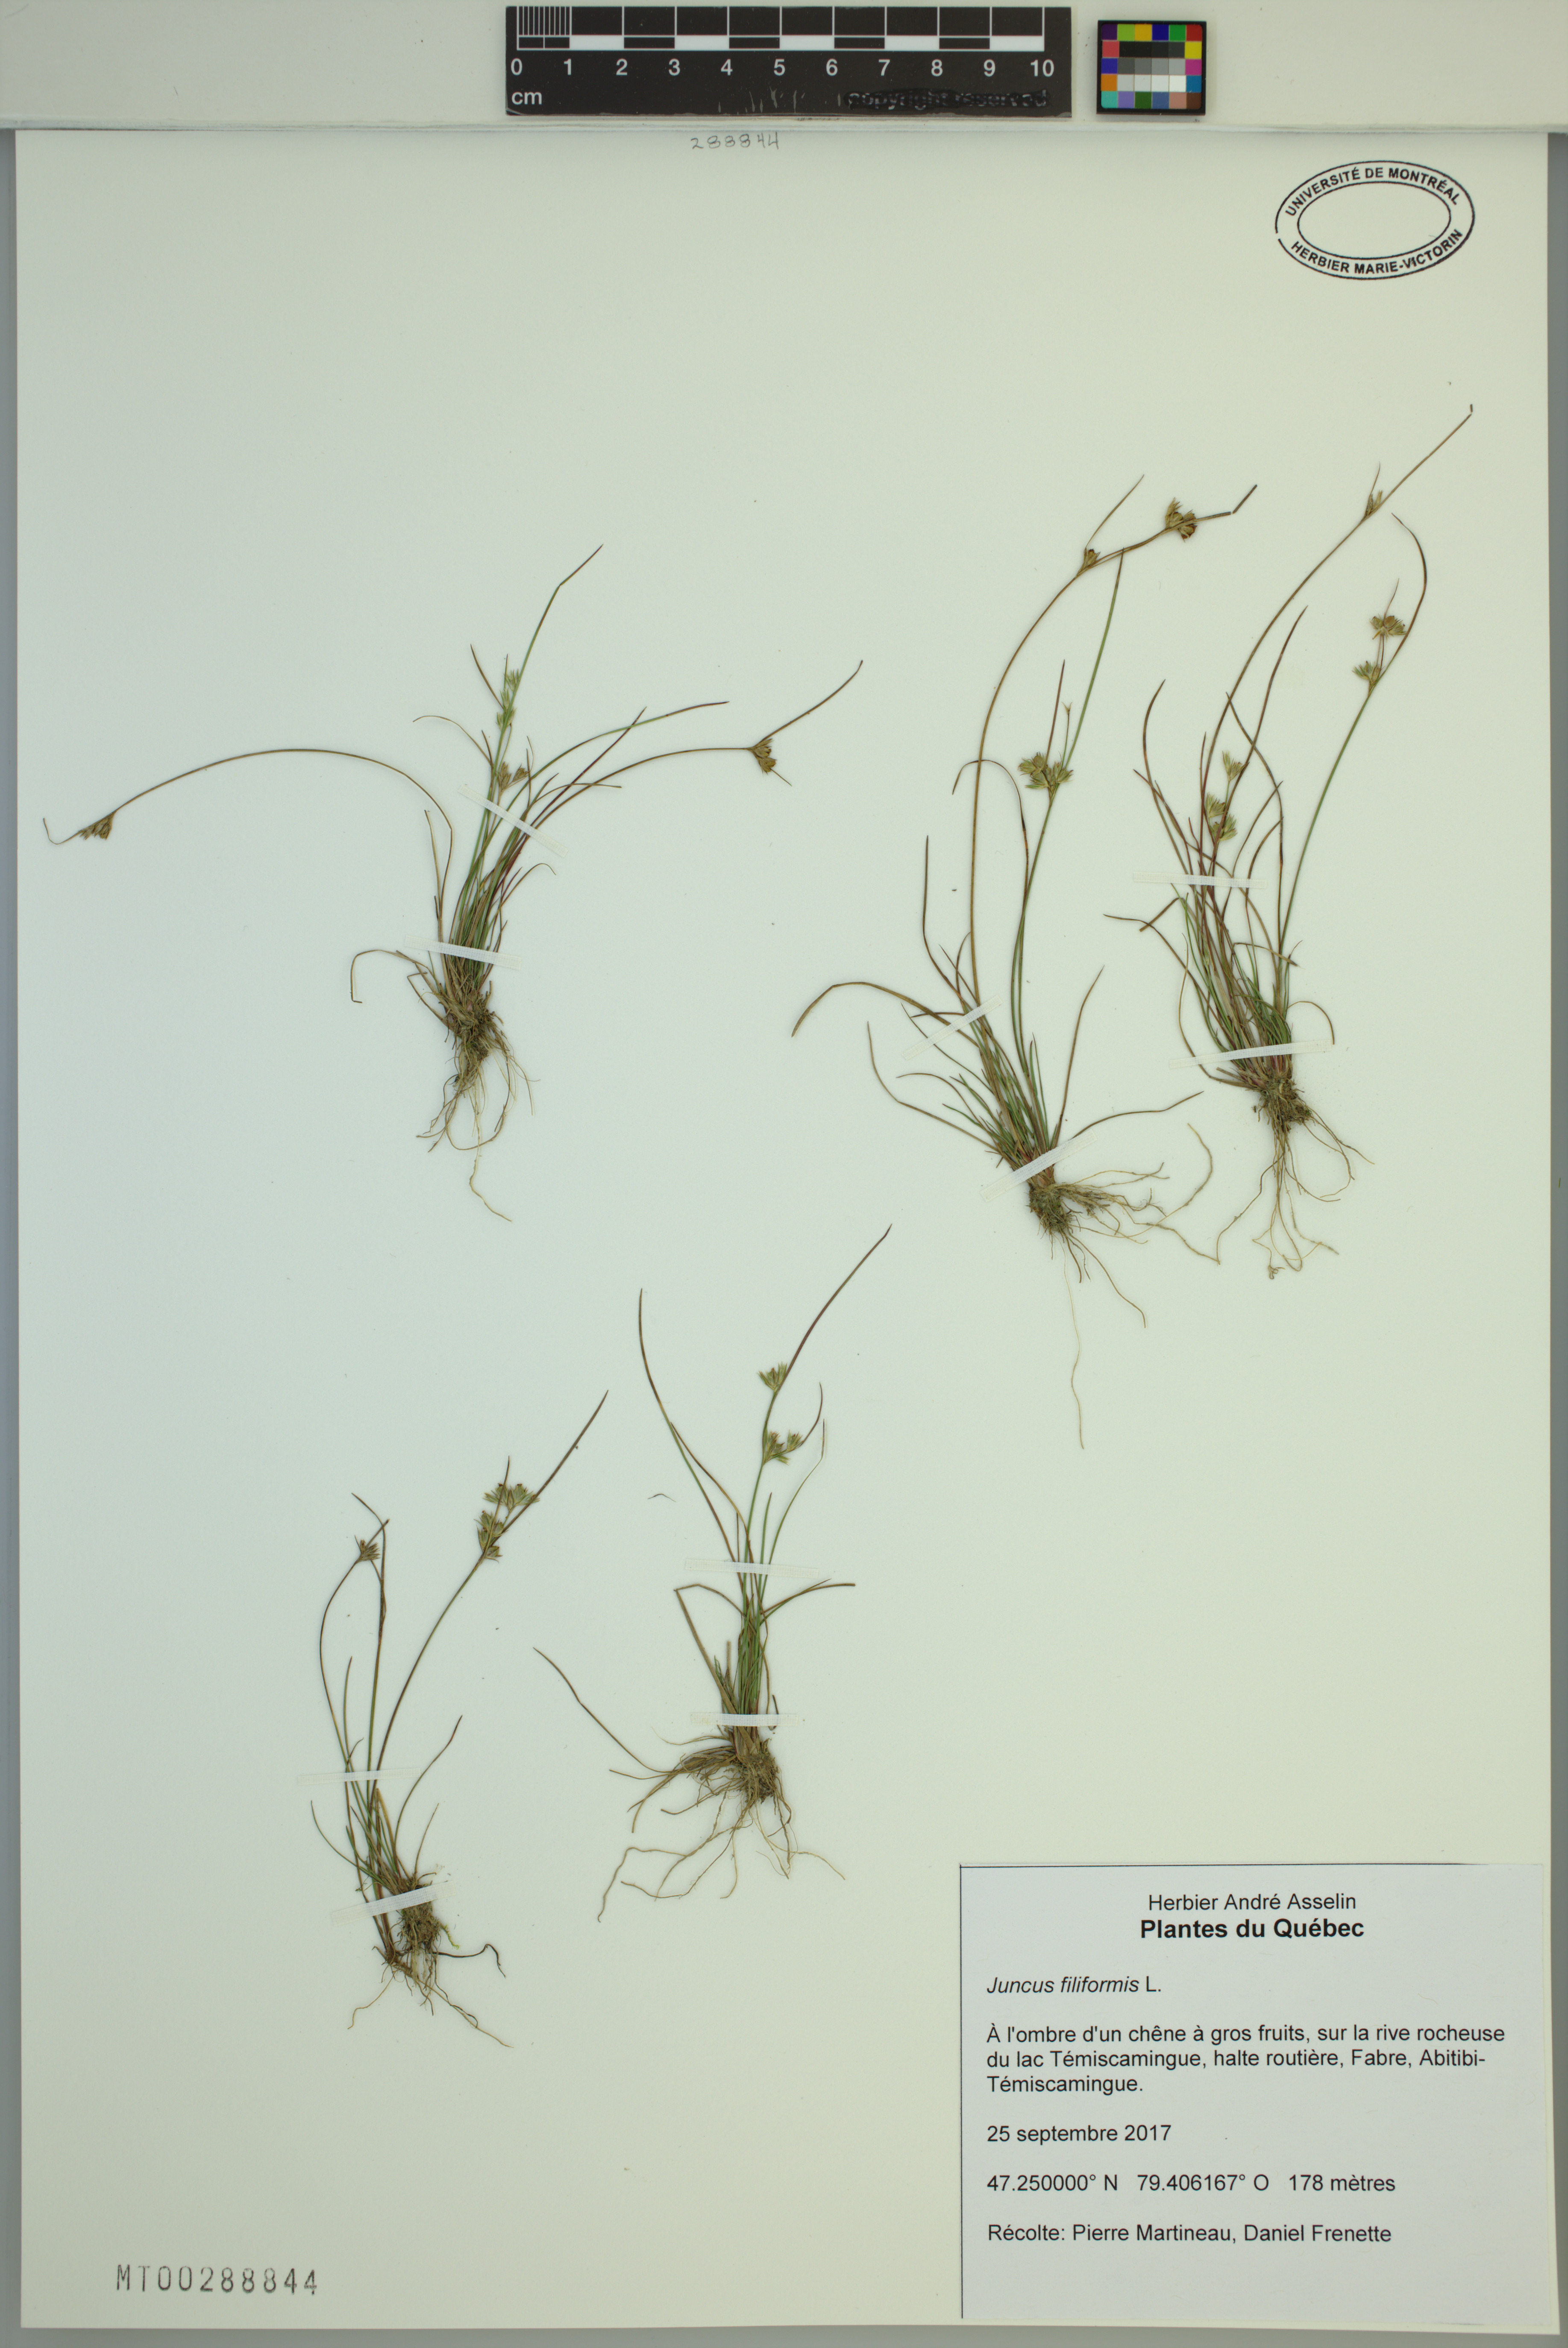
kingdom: Plantae
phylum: Tracheophyta
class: Liliopsida
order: Poales
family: Juncaceae
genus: Juncus
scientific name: Juncus filiformis
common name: Thread rush
